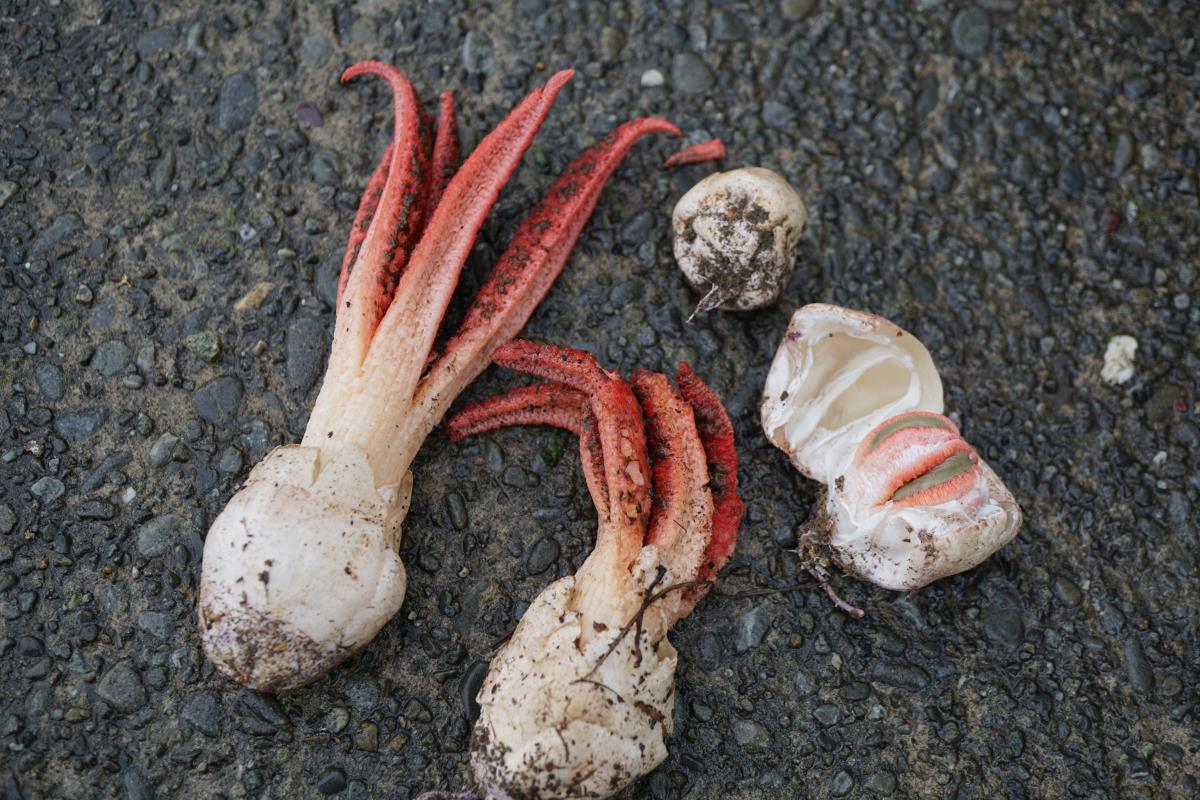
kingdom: Fungi
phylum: Basidiomycota
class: Agaricomycetes
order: Phallales
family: Phallaceae
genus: Clathrus
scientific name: Clathrus archeri
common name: Devil's fingers
